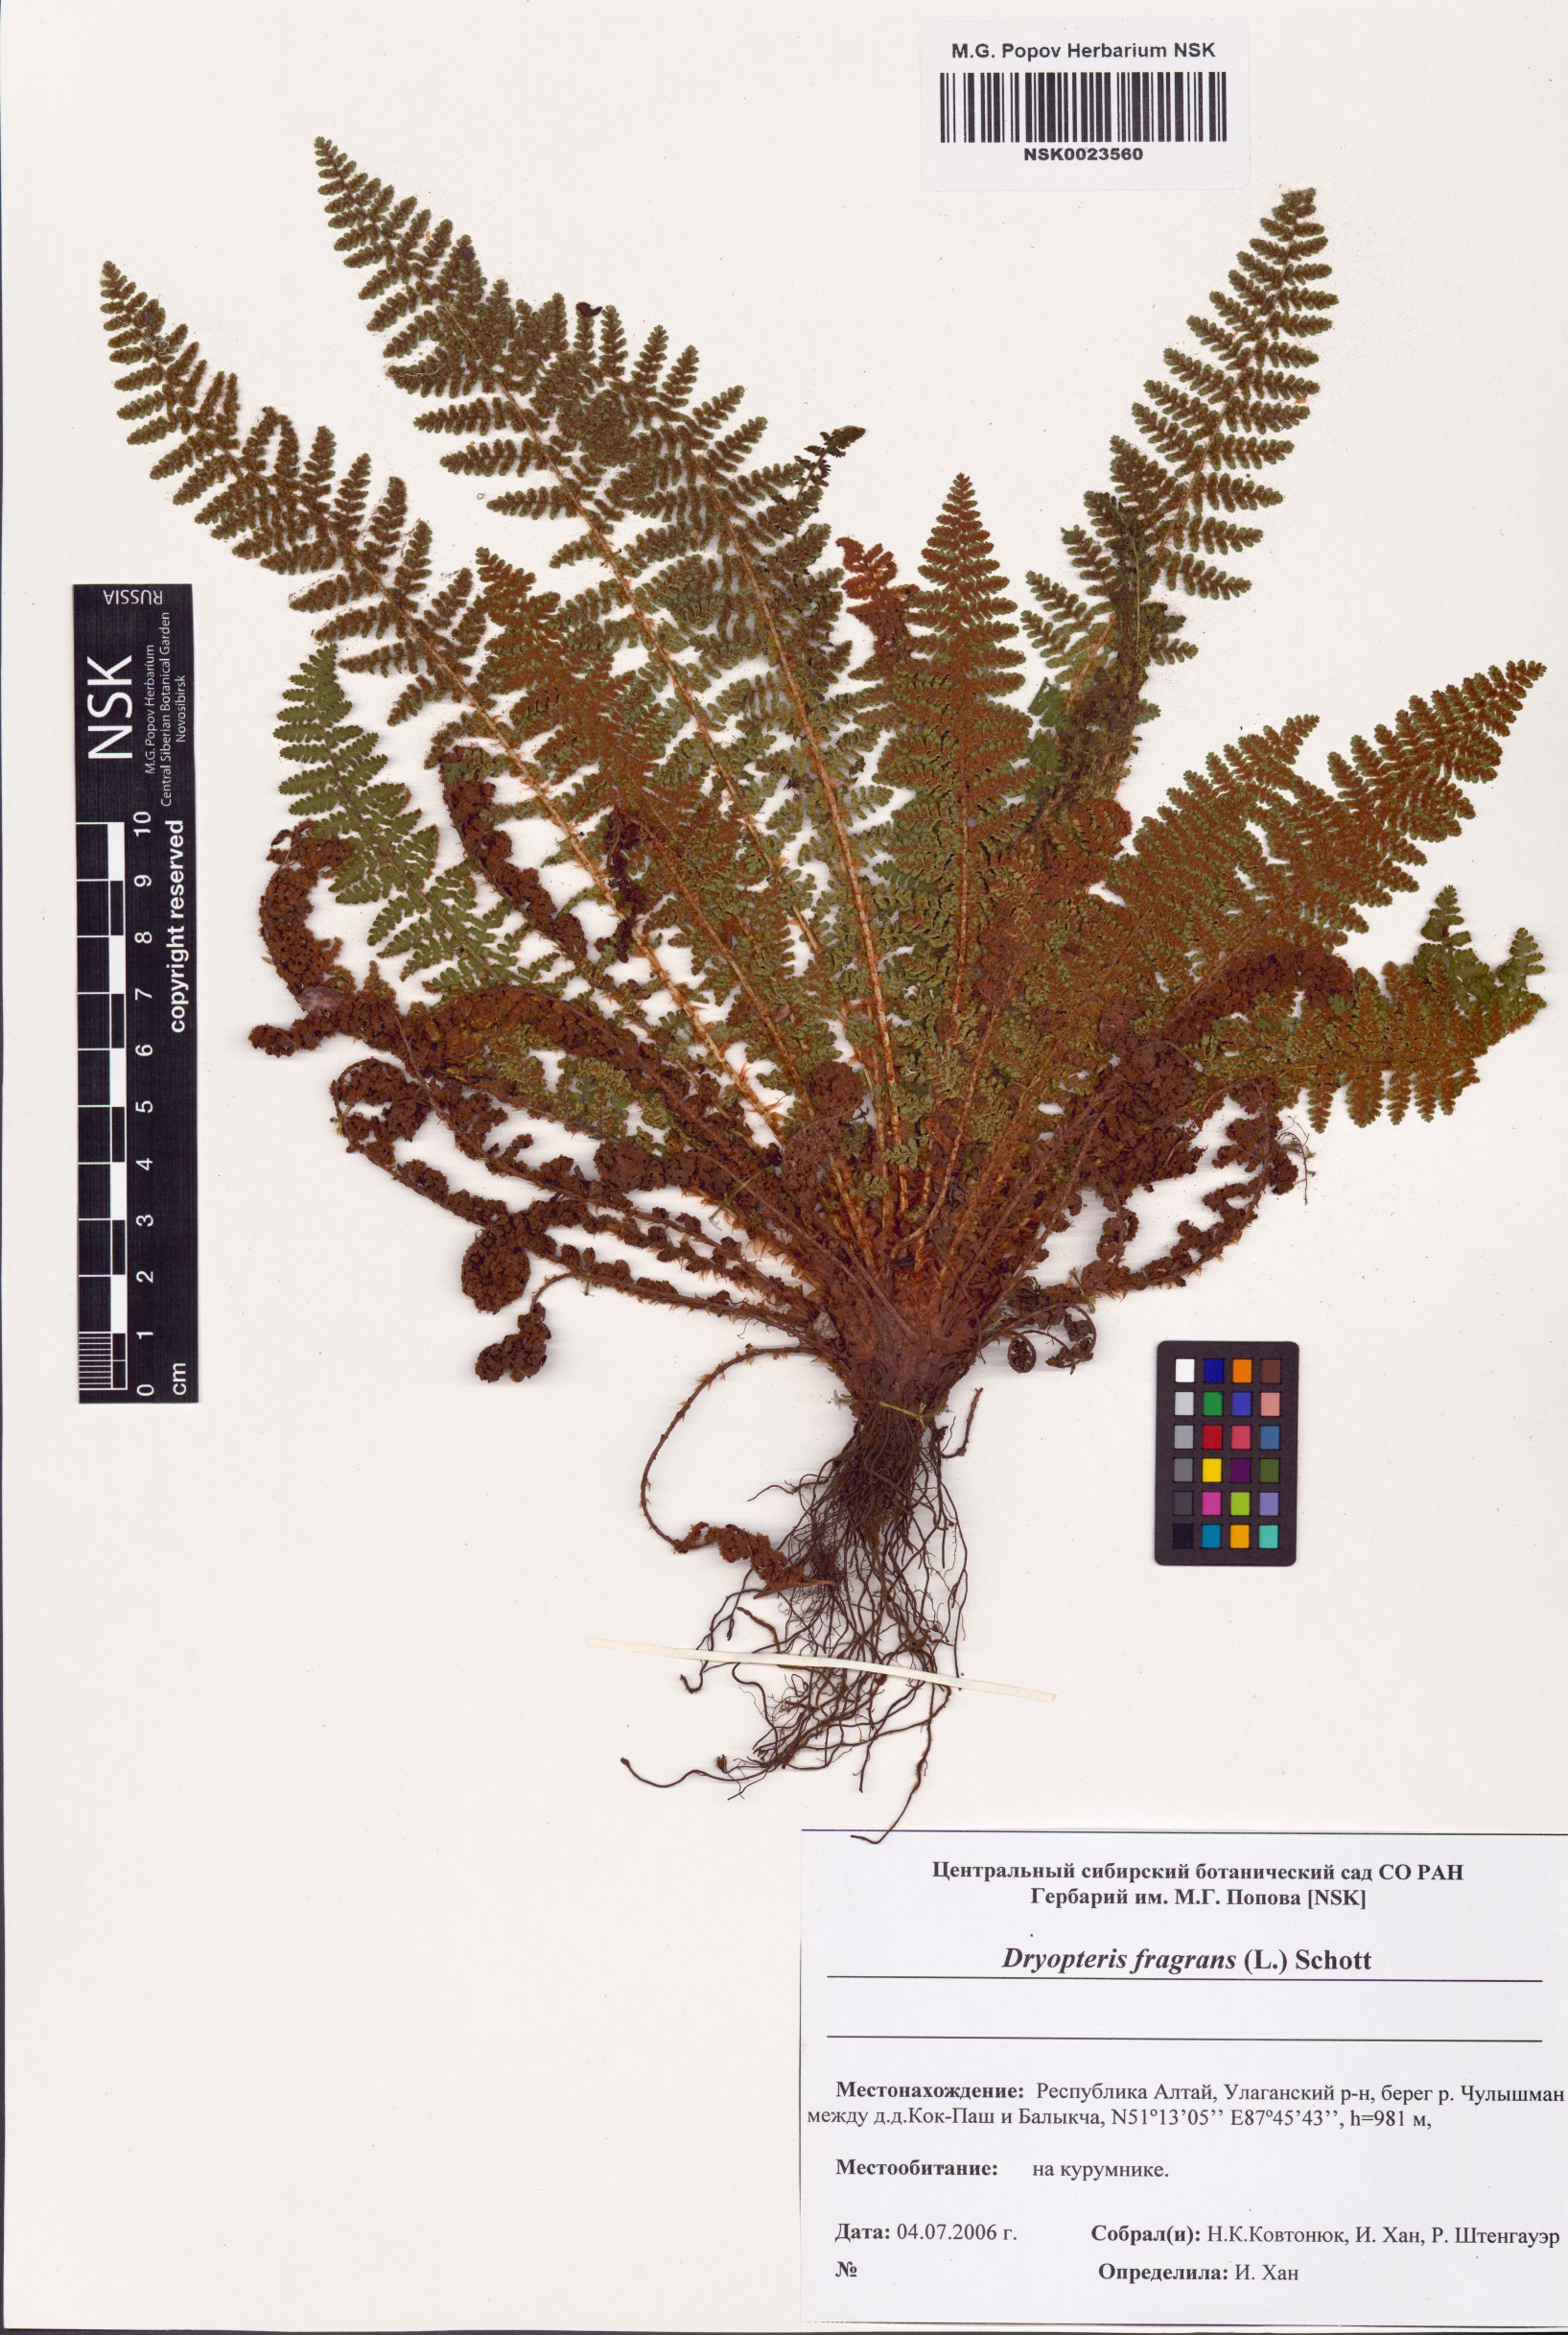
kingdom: Plantae
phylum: Tracheophyta
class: Polypodiopsida
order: Polypodiales
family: Dryopteridaceae
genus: Dryopteris
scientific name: Dryopteris fragrans
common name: Fragrant wood fern
